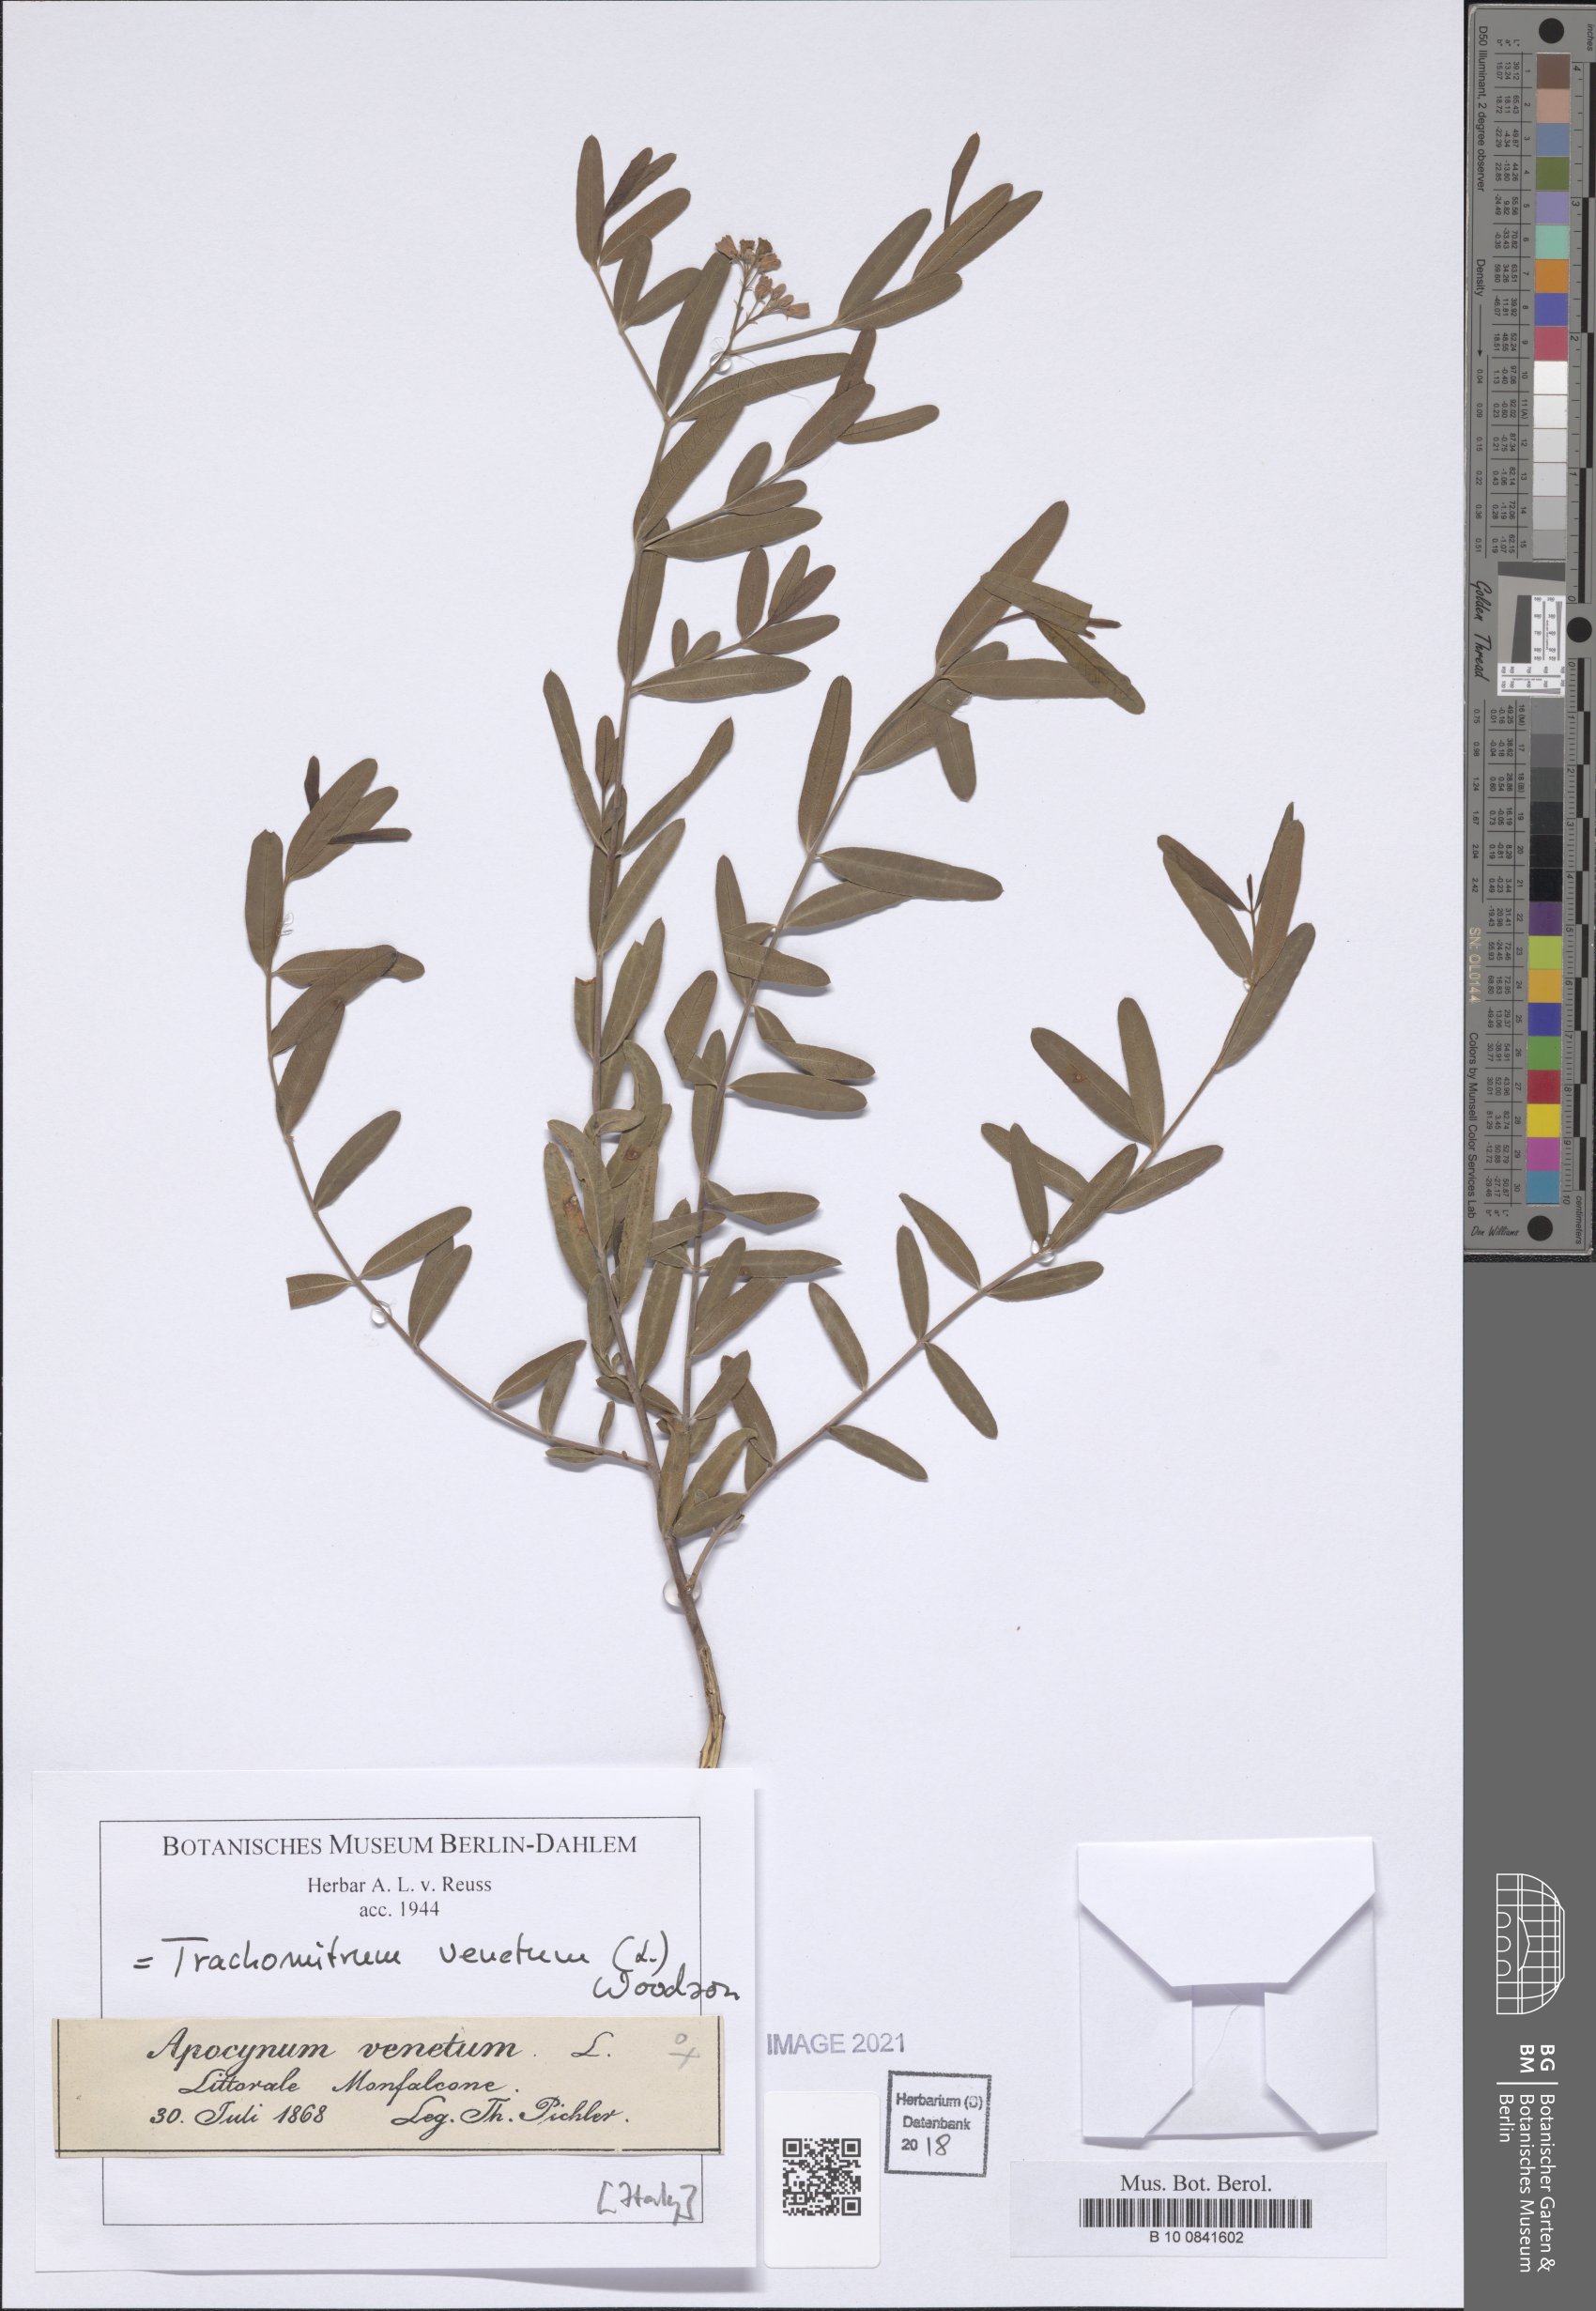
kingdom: Plantae
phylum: Tracheophyta
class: Magnoliopsida
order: Gentianales
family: Apocynaceae
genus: Poacynum
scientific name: Poacynum venetum
